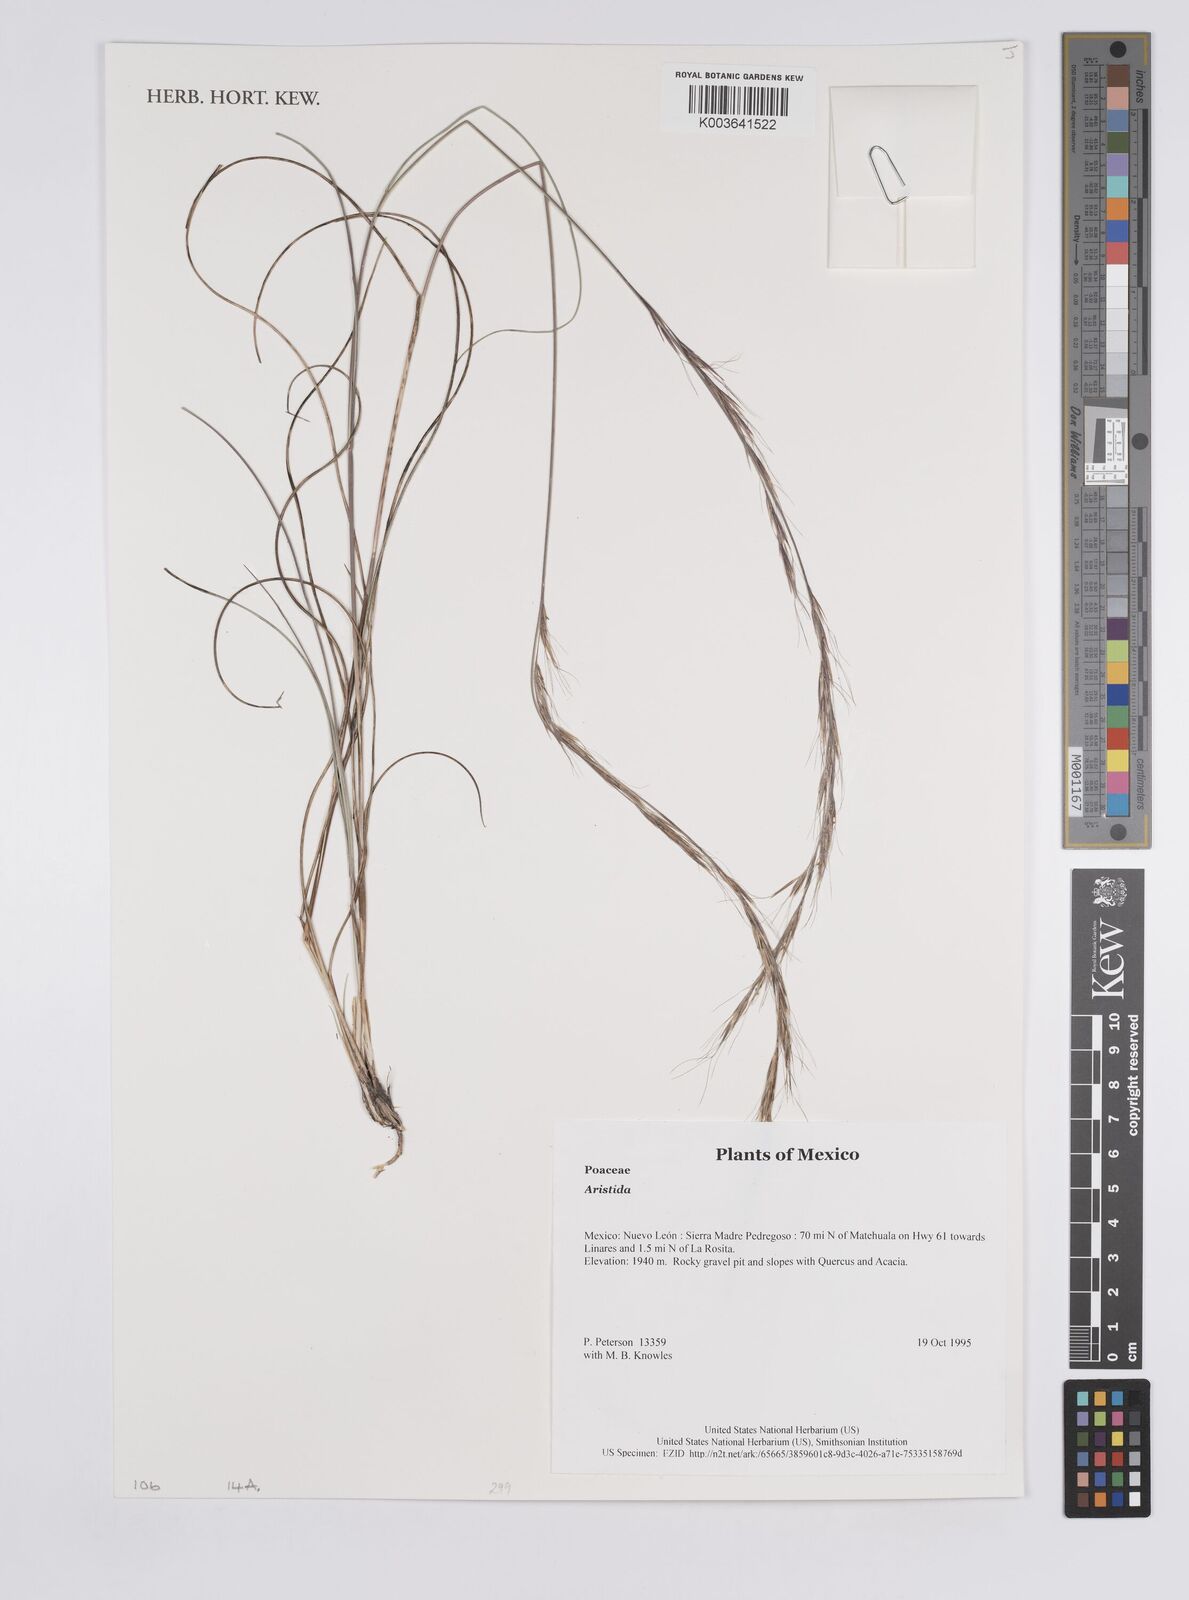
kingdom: Plantae
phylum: Tracheophyta
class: Liliopsida
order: Poales
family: Poaceae
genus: Aristida
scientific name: Aristida
